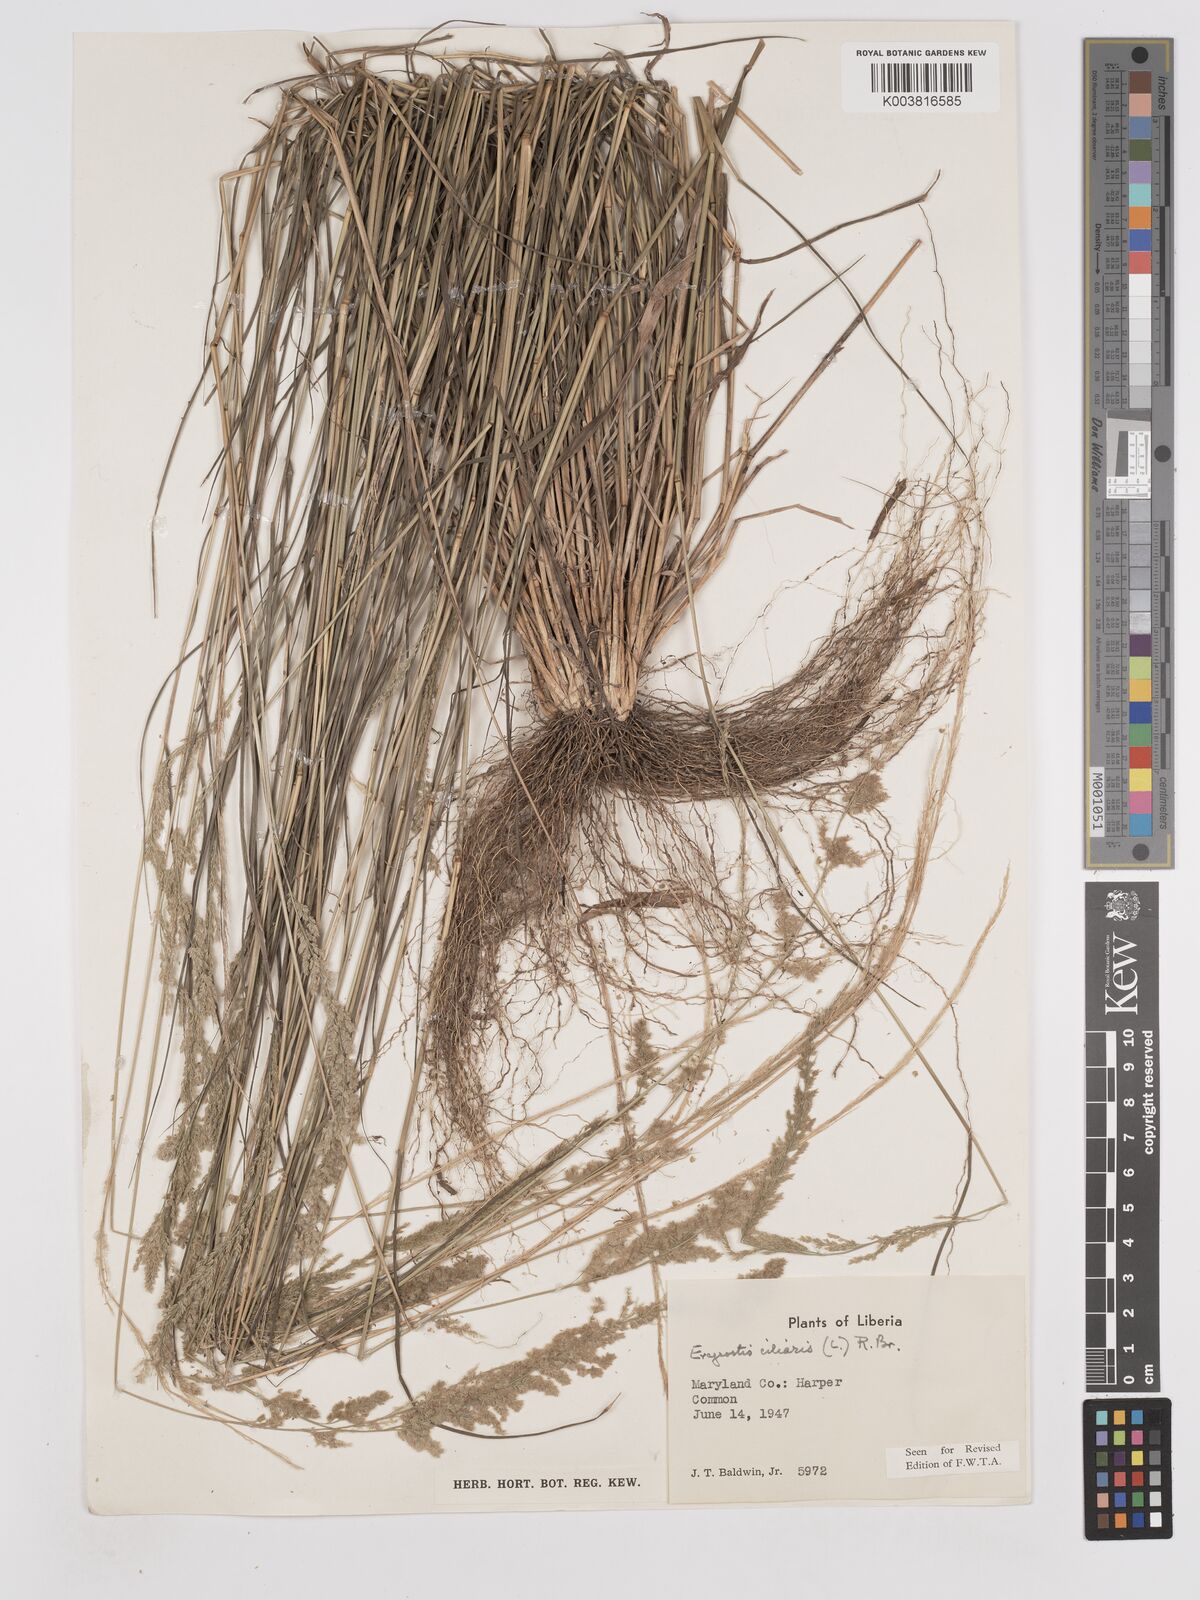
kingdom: Plantae
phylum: Tracheophyta
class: Liliopsida
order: Poales
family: Poaceae
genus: Eragrostis
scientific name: Eragrostis ciliaris
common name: Gophertail lovegrass
